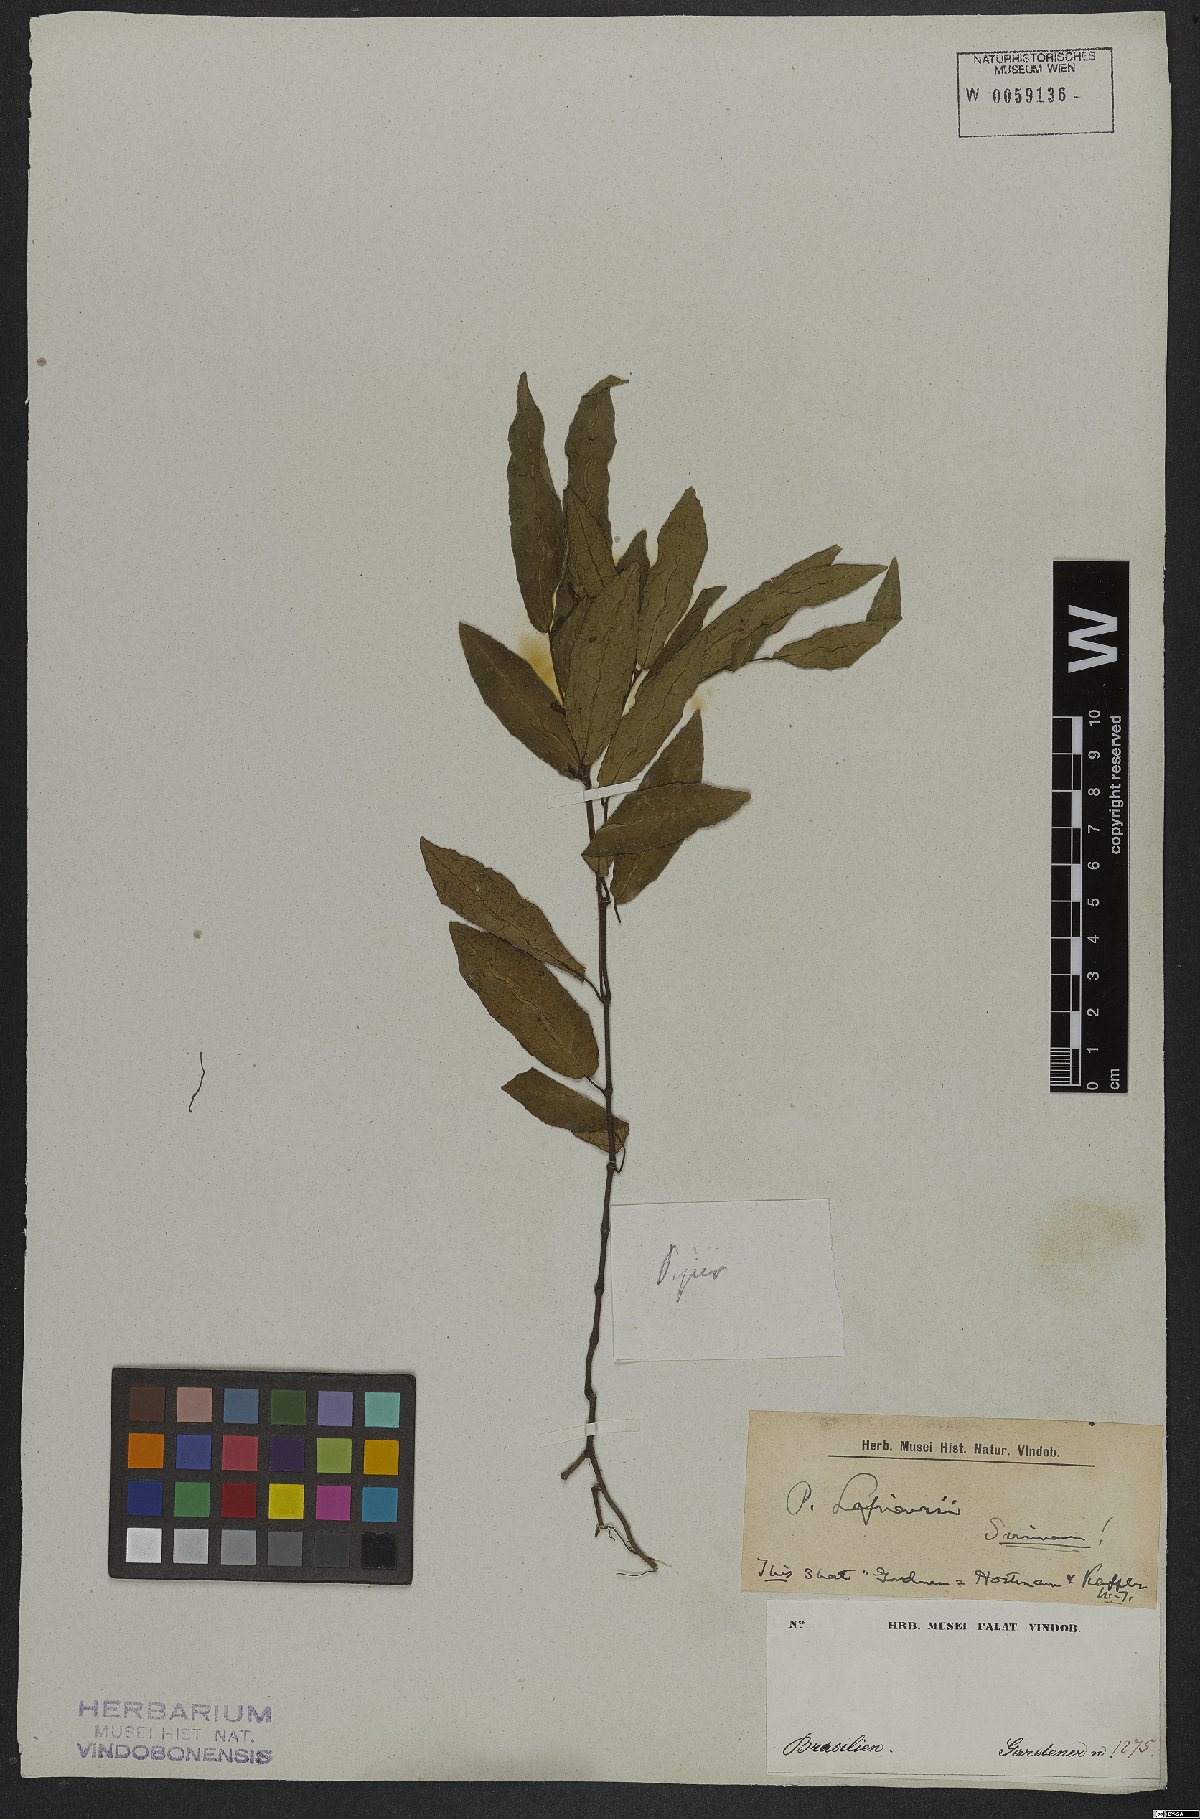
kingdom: Plantae
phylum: Tracheophyta
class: Magnoliopsida
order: Piperales
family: Piperaceae
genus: Piper
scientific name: Piper consanguineum
